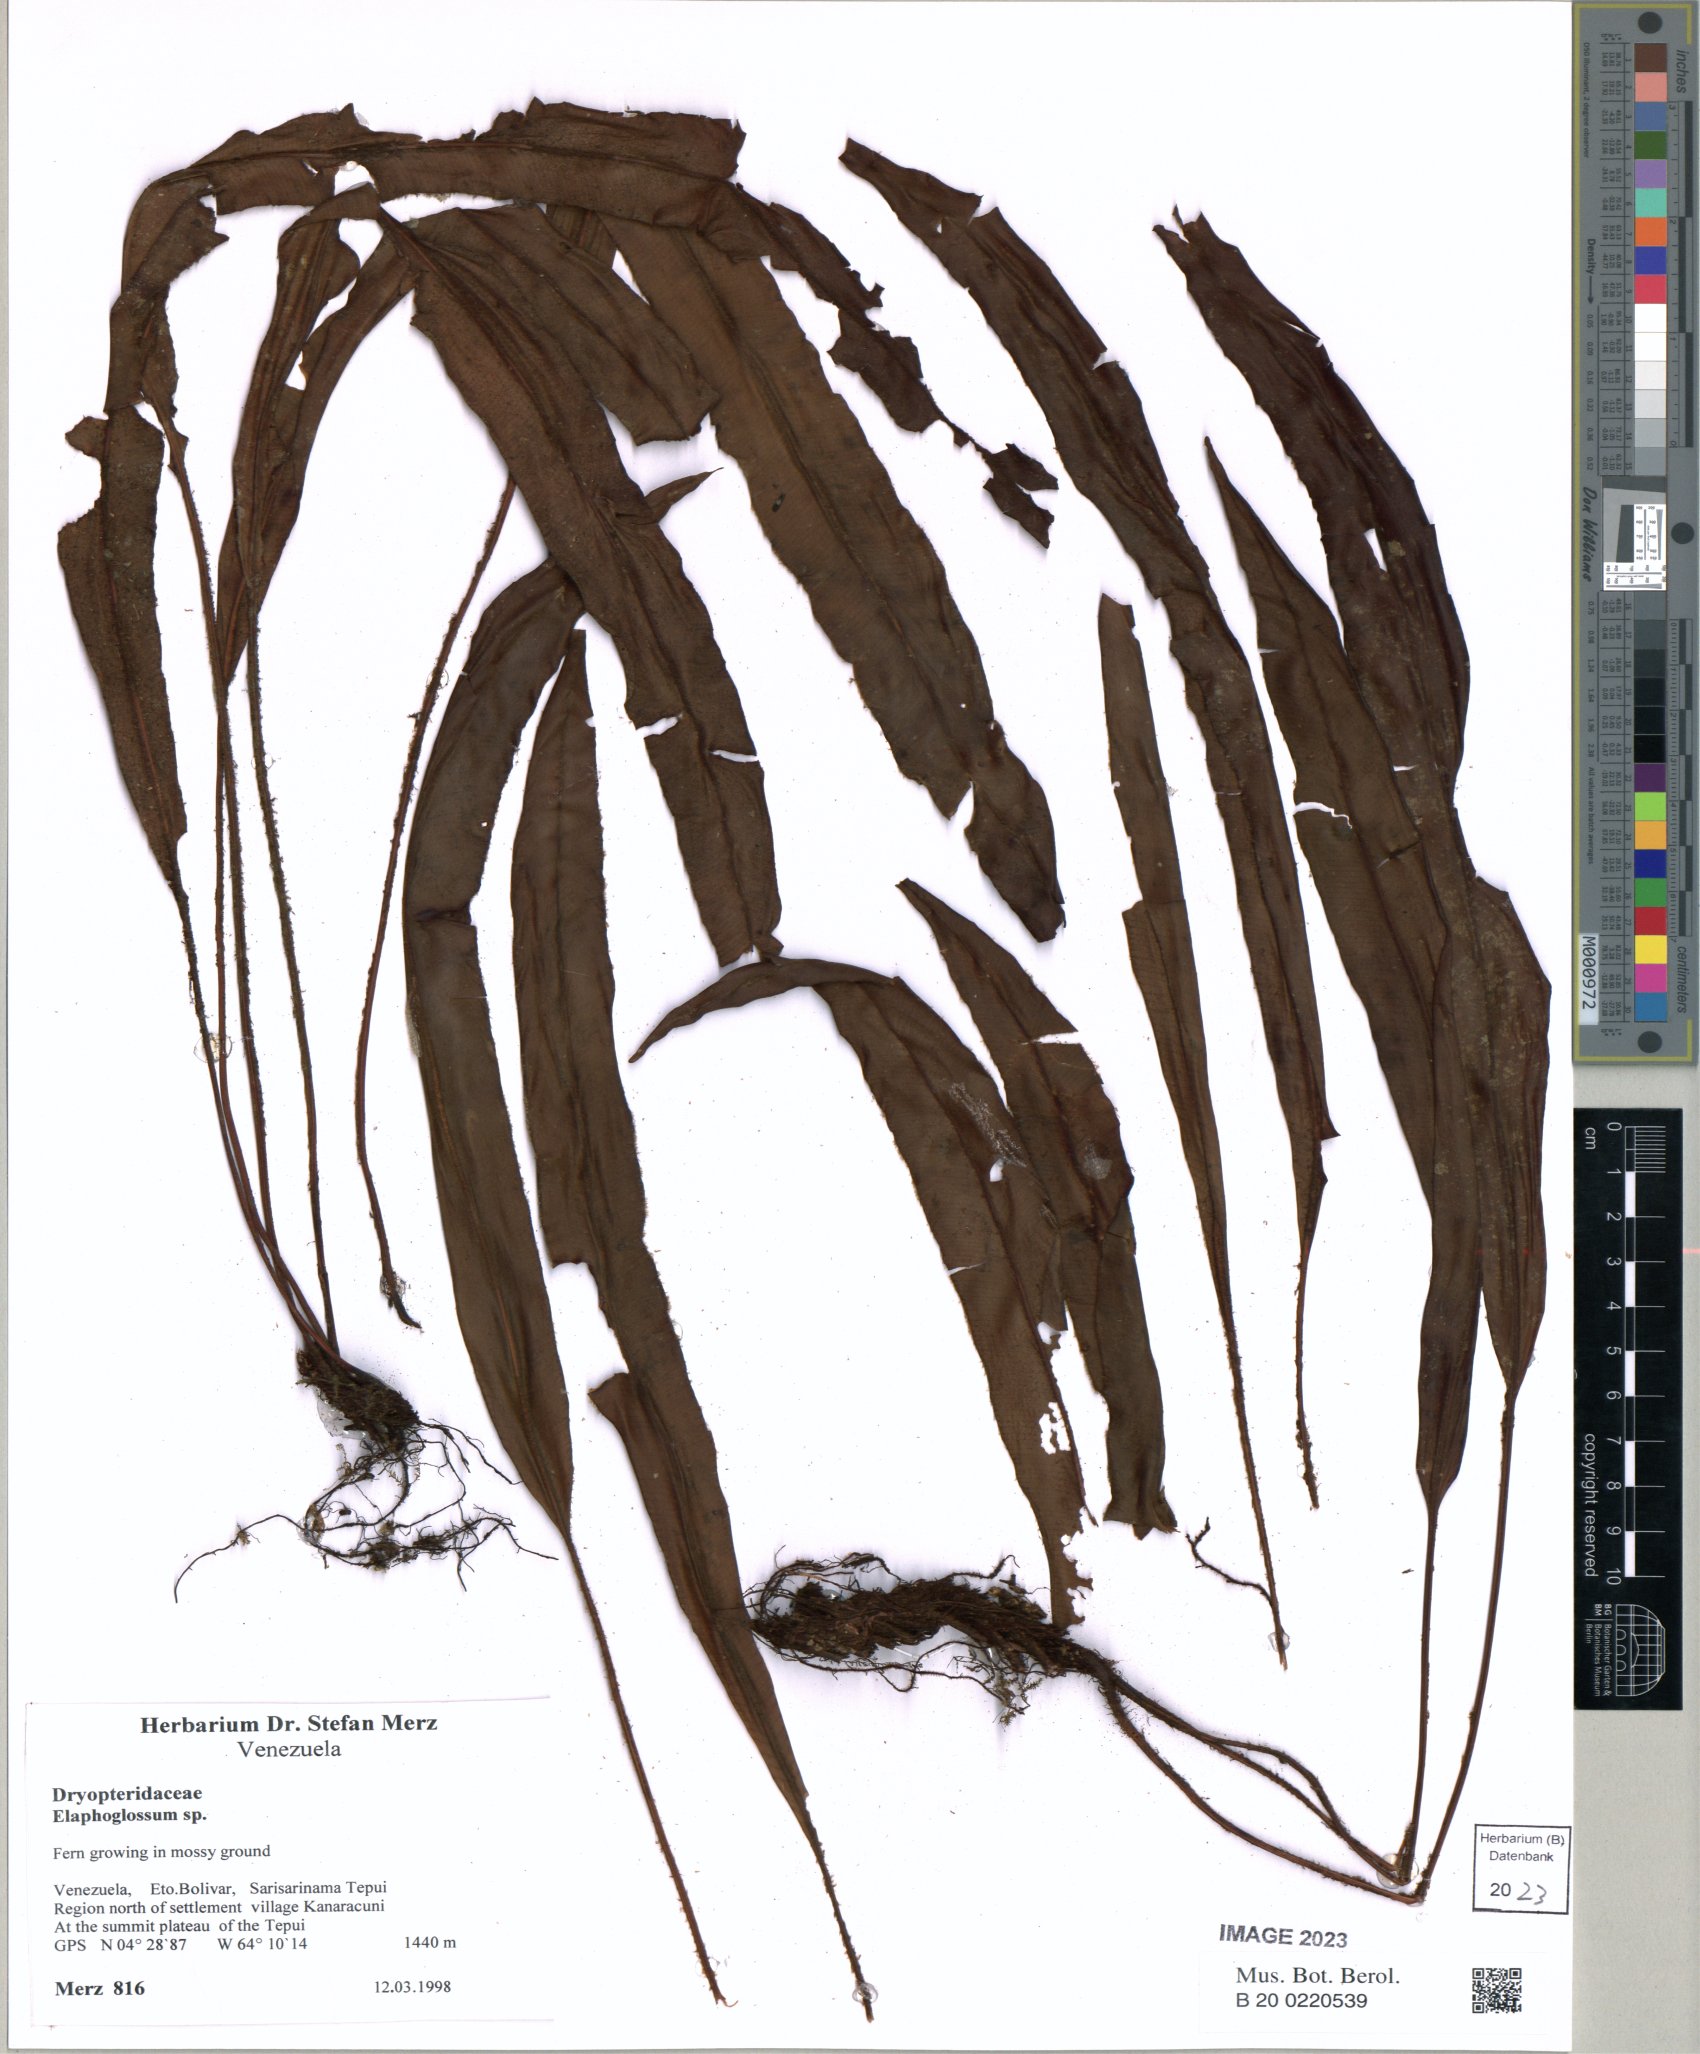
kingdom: Plantae
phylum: Tracheophyta
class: Polypodiopsida
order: Polypodiales
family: Dryopteridaceae
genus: Elaphoglossum
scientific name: Elaphoglossum
